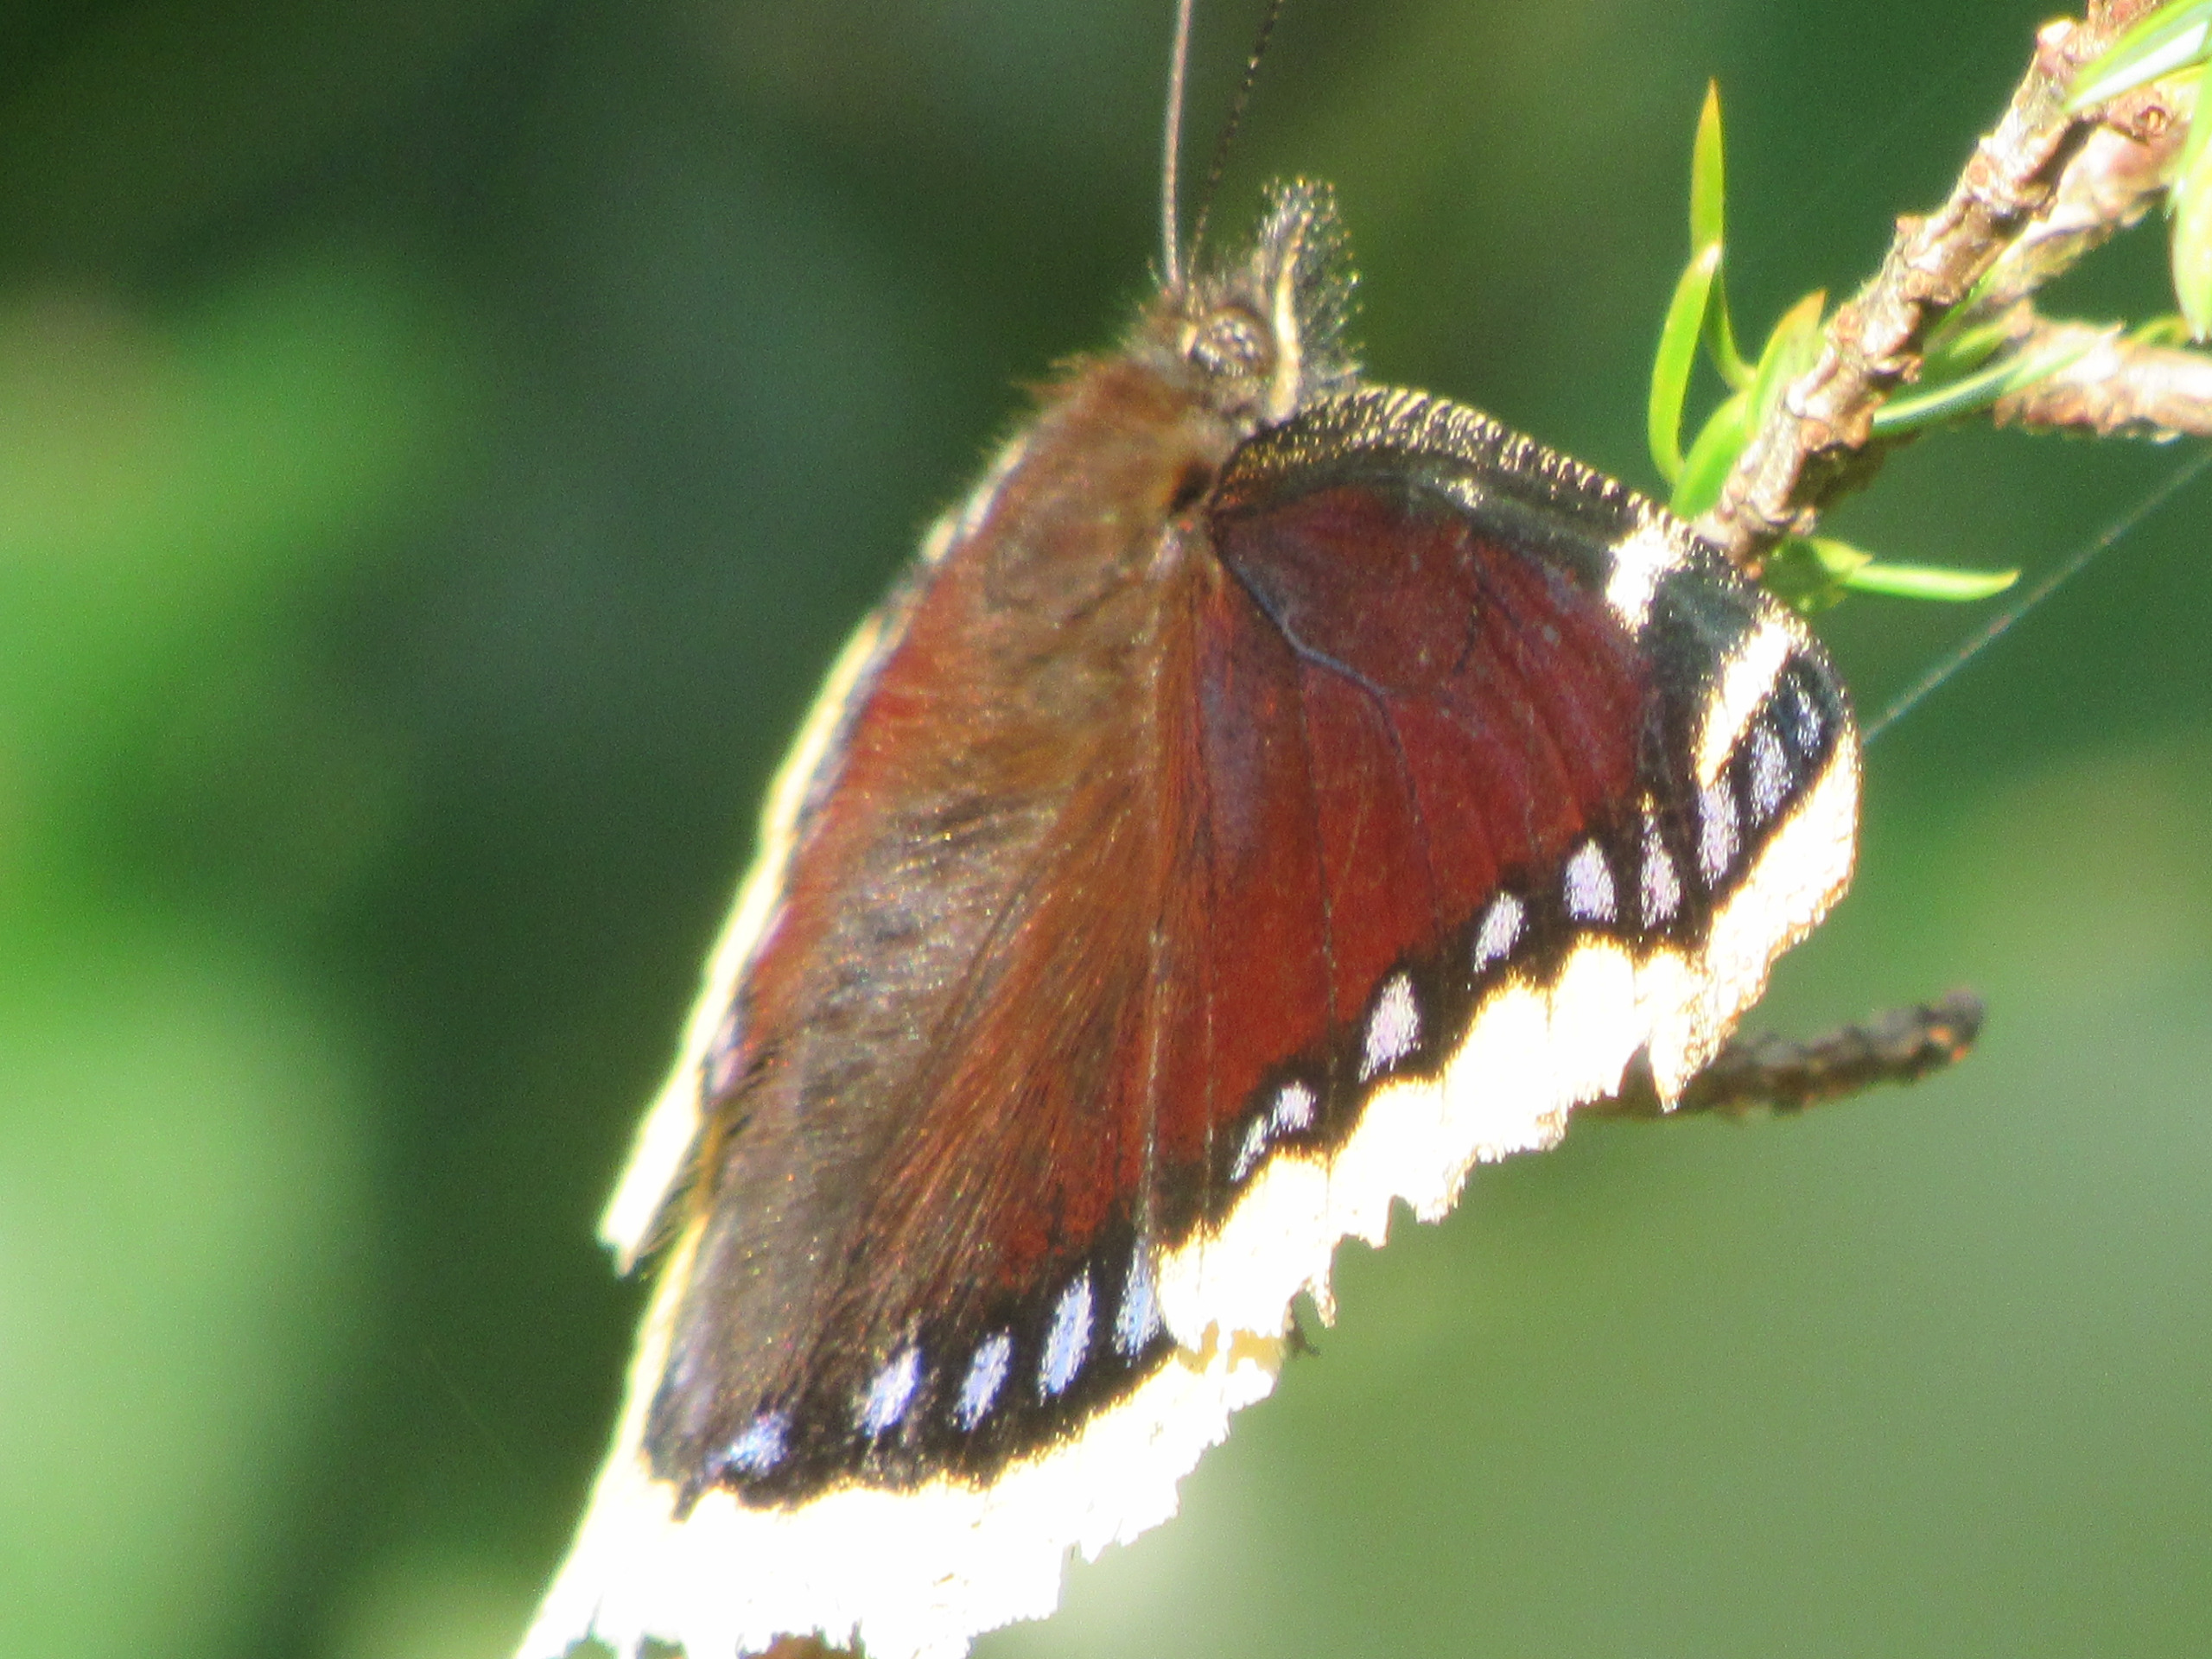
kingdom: Animalia
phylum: Arthropoda
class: Insecta
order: Lepidoptera
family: Nymphalidae
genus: Nymphalis
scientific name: Nymphalis antiopa
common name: Sørgekåbe
